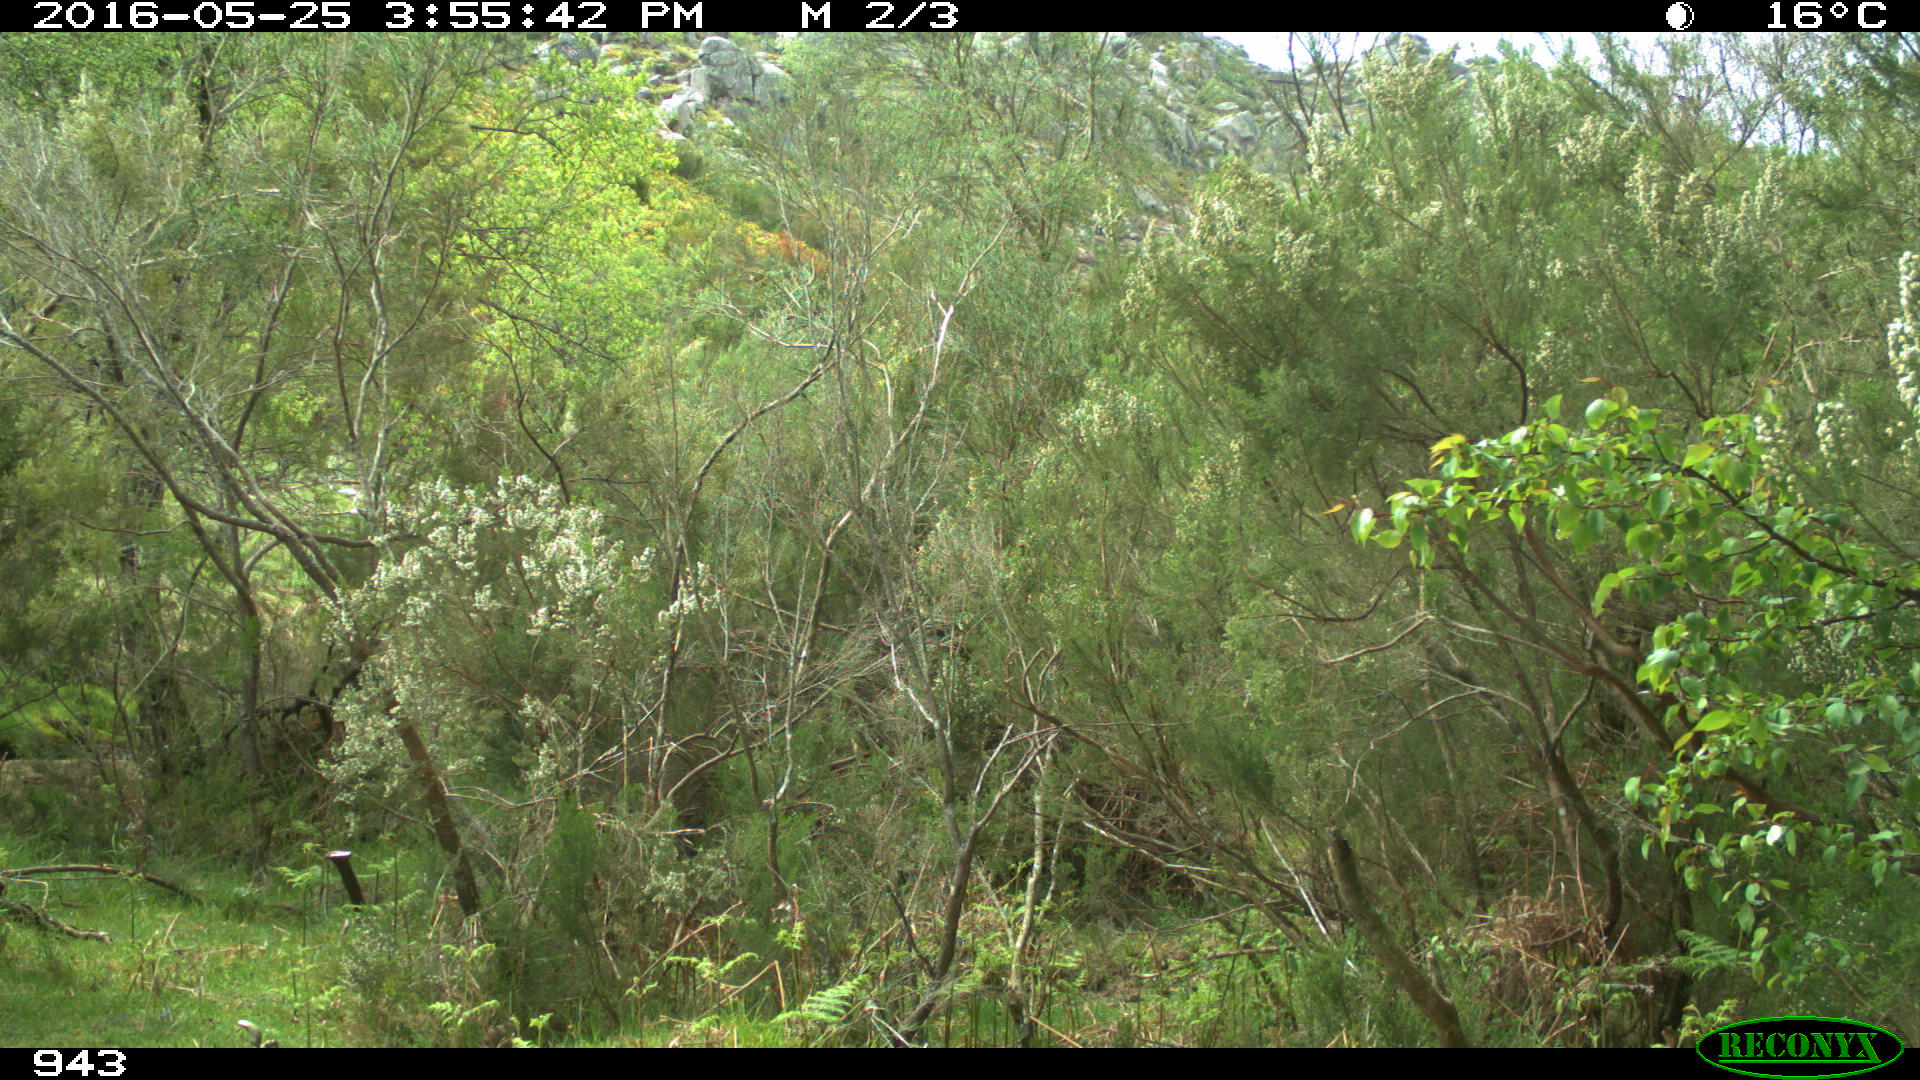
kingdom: Animalia
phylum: Chordata
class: Mammalia
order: Perissodactyla
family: Equidae
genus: Equus
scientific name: Equus caballus
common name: Horse
